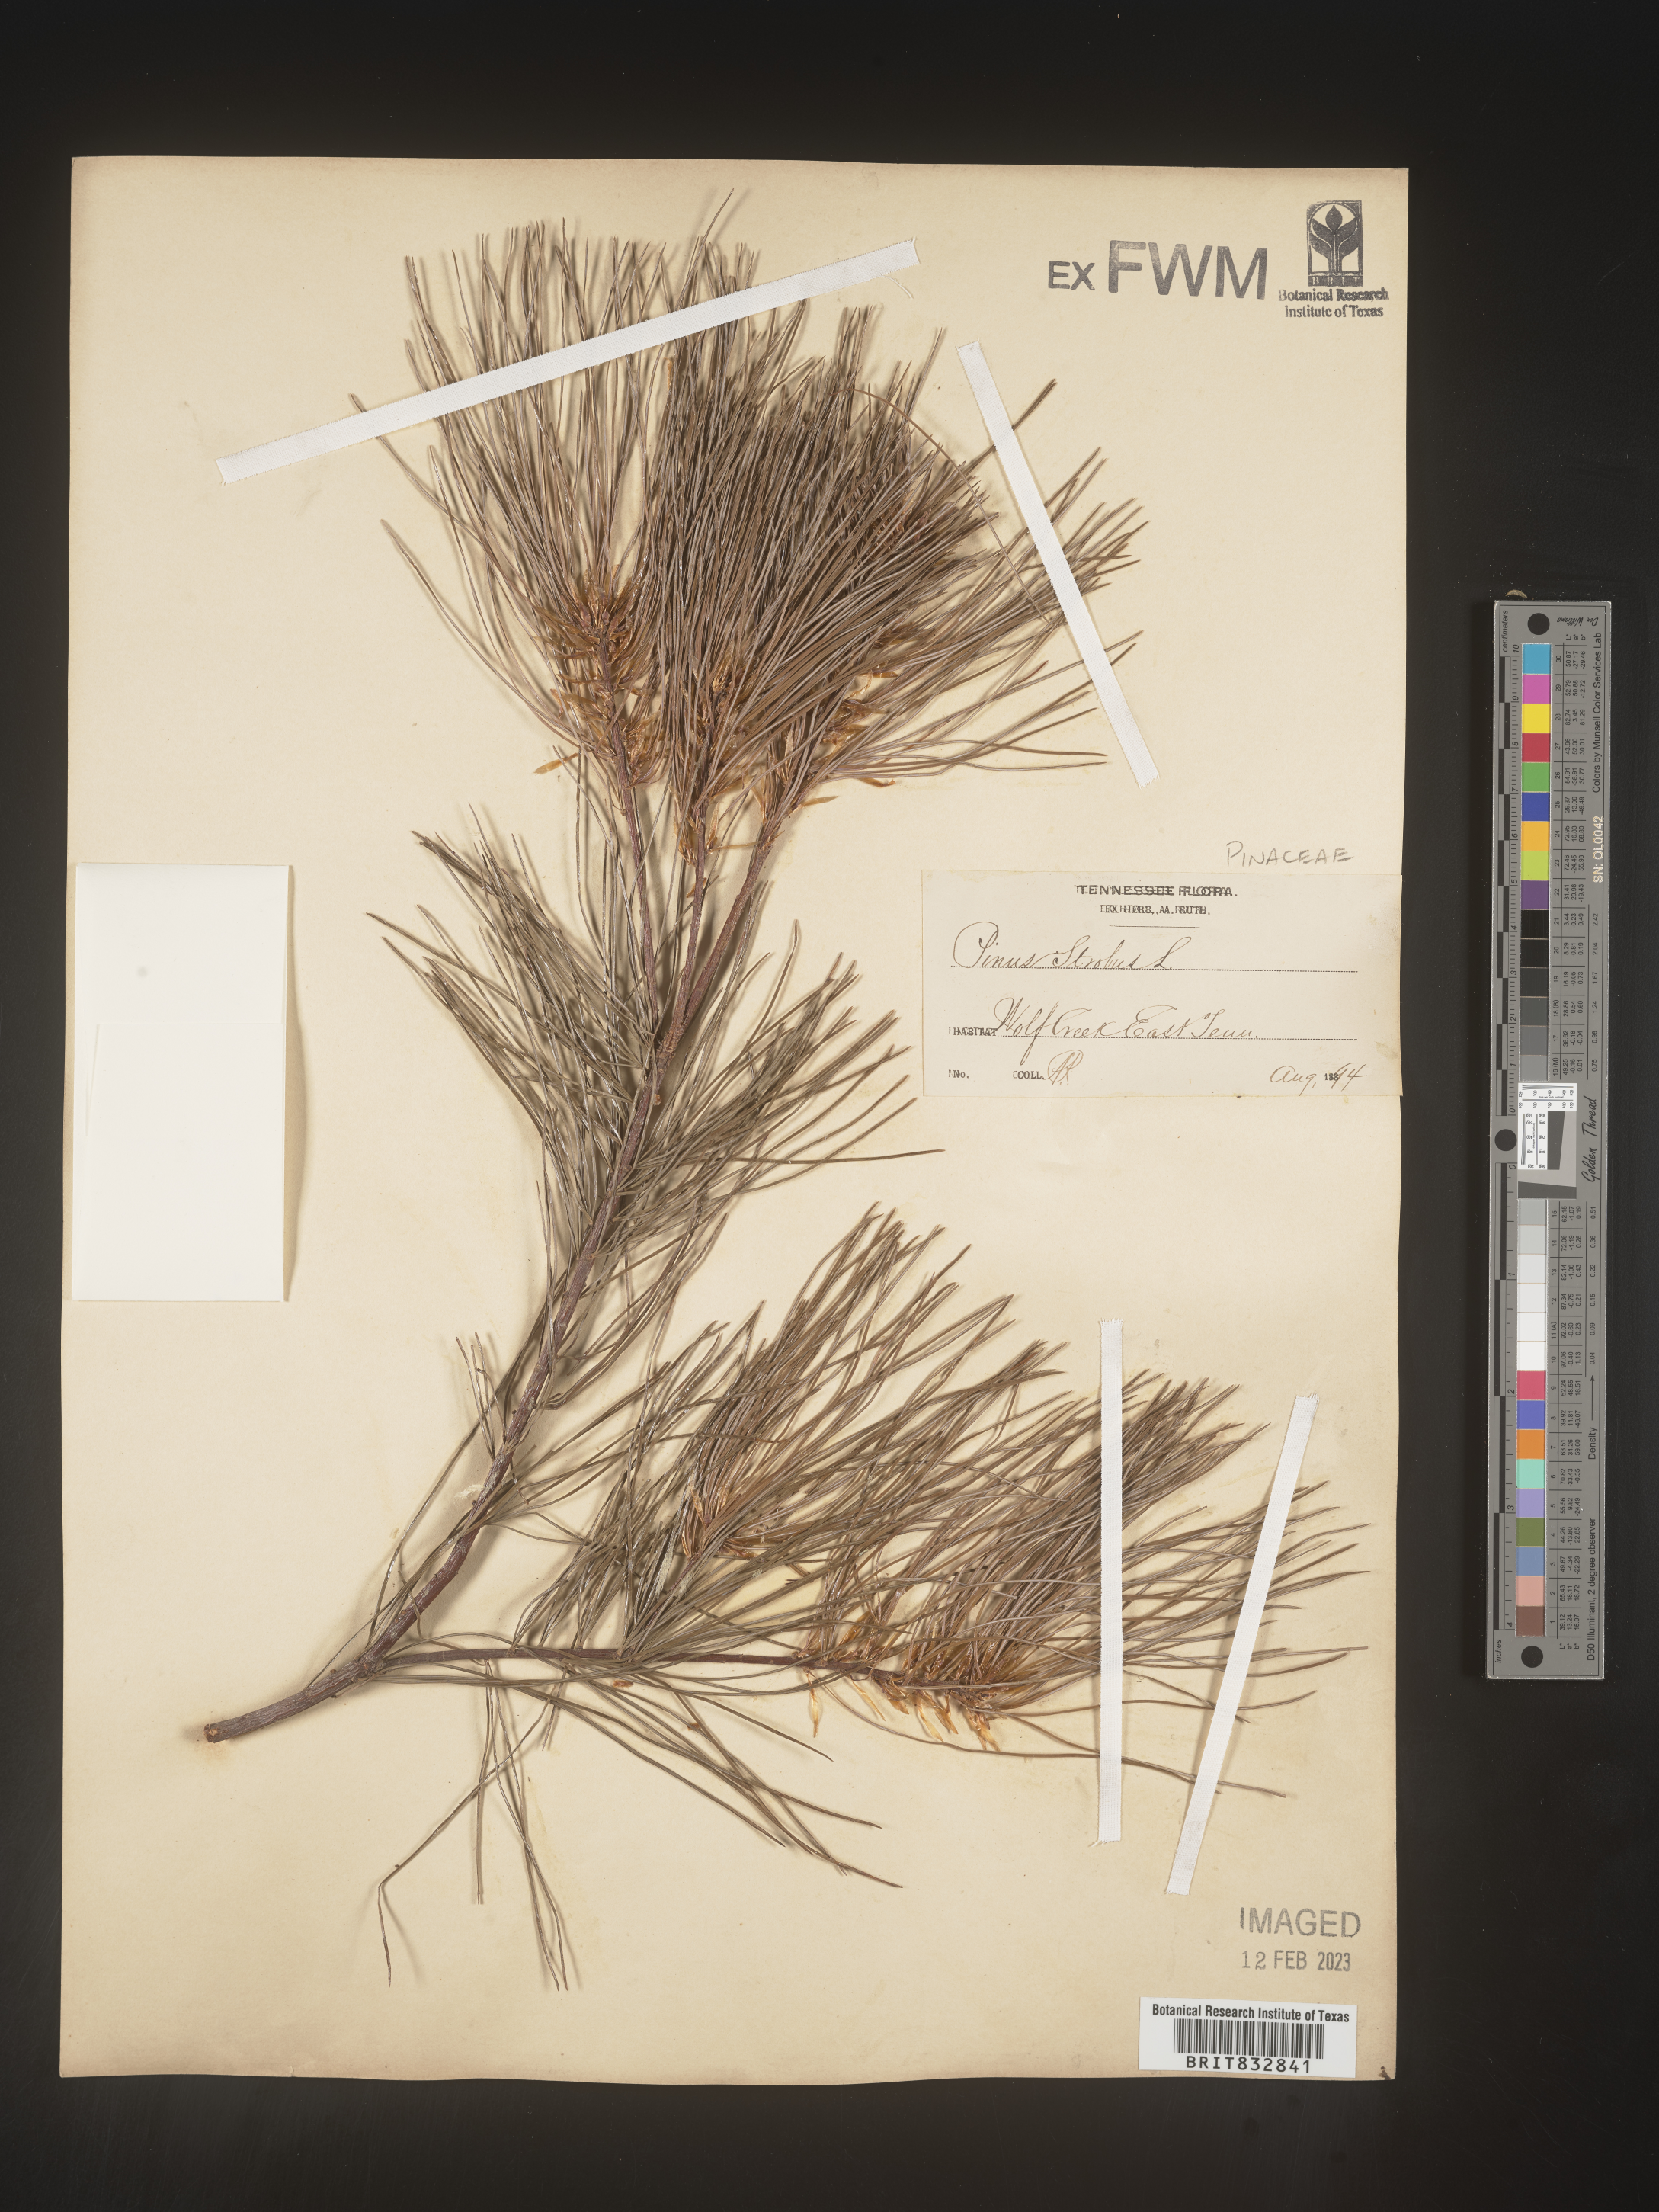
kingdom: Plantae
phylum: Tracheophyta
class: Pinopsida
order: Pinales
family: Pinaceae
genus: Pinus
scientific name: Pinus strobus
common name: Weymouth pine
